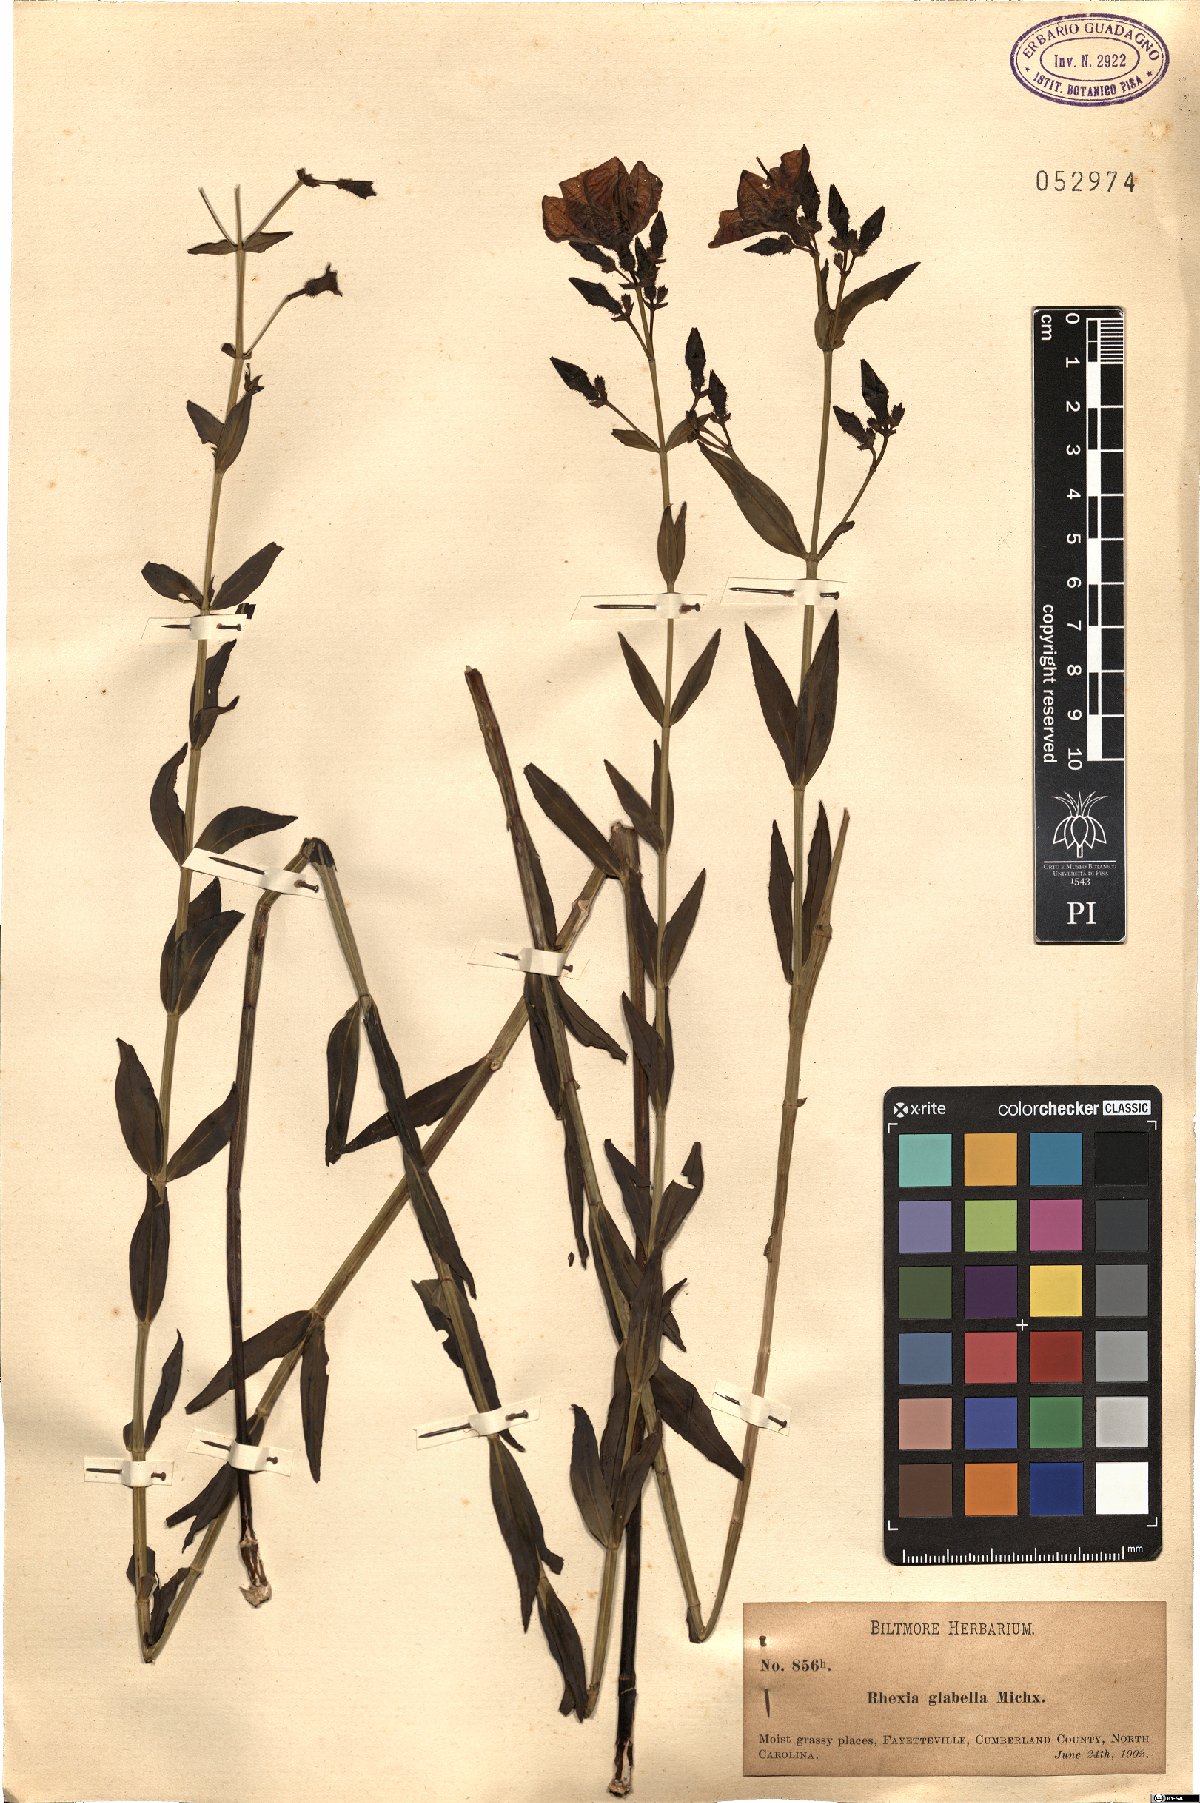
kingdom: Plantae
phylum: Tracheophyta
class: Magnoliopsida
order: Myrtales
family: Melastomataceae
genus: Rhexia
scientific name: Rhexia alifanus
